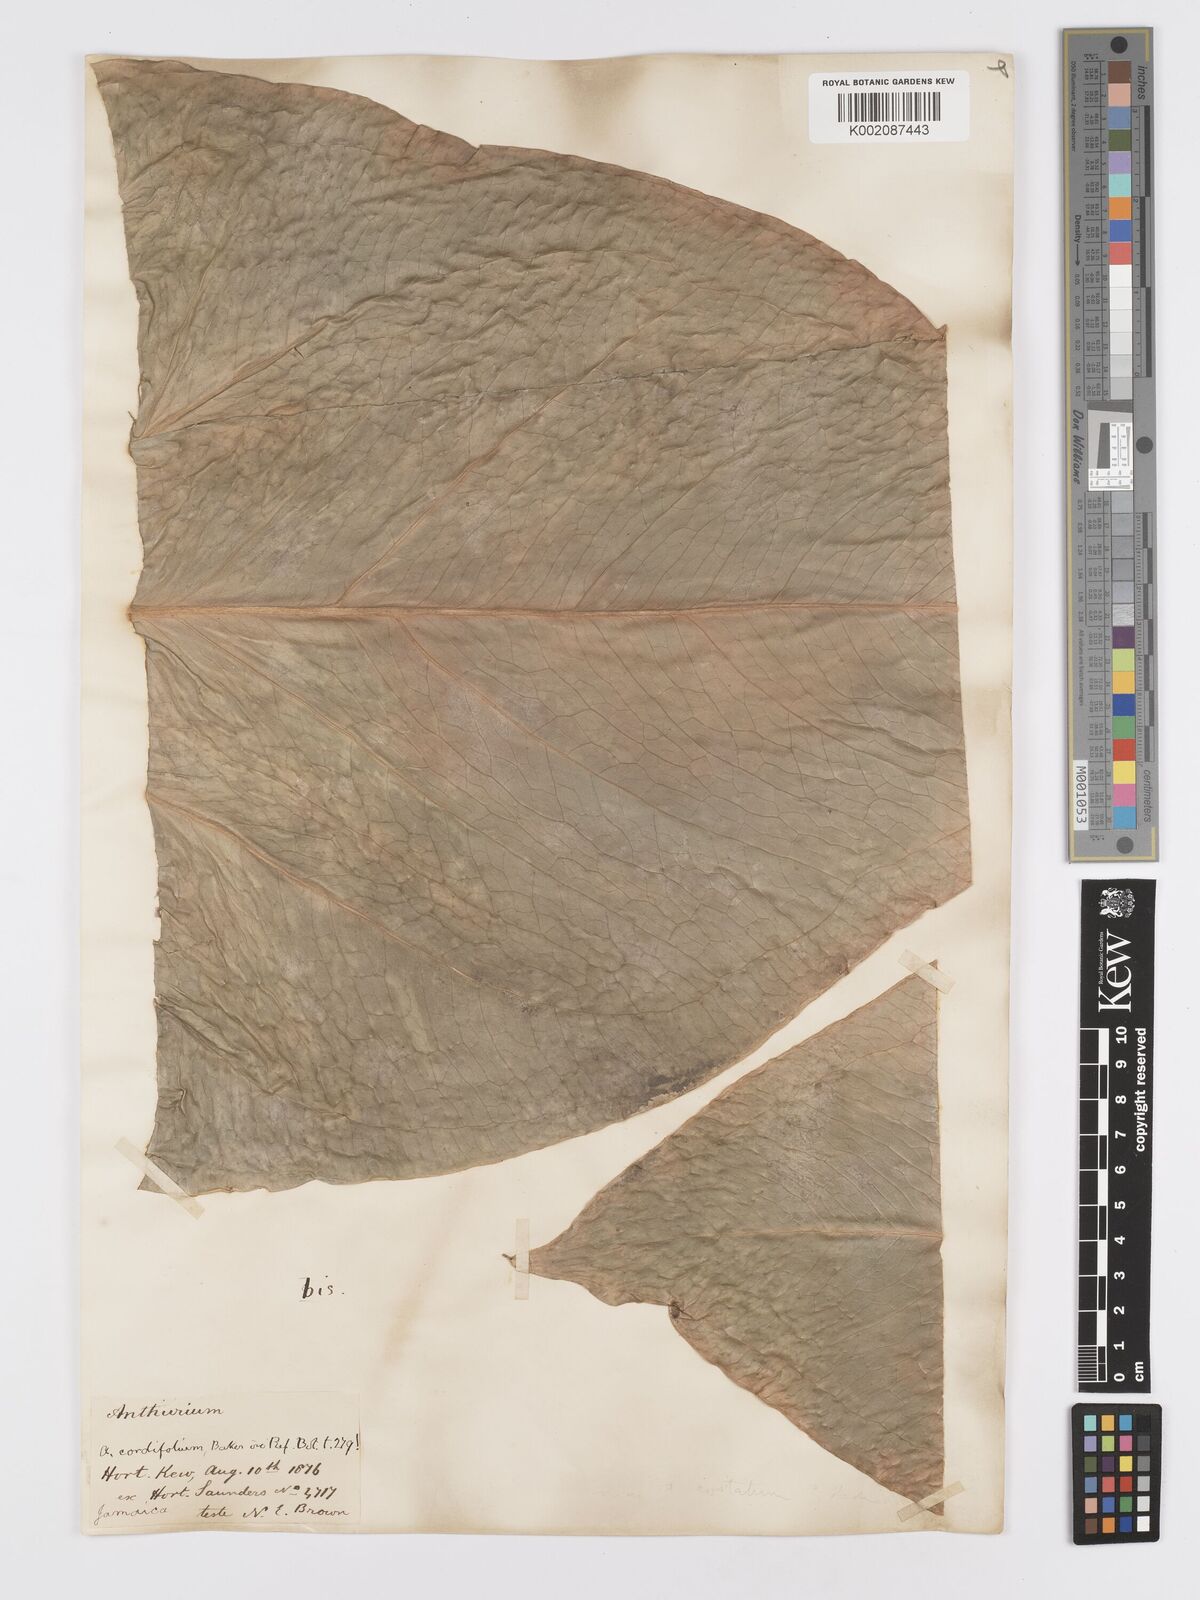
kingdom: Plantae
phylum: Tracheophyta
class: Liliopsida
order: Alismatales
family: Araceae
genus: Anthurium
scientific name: Anthurium
